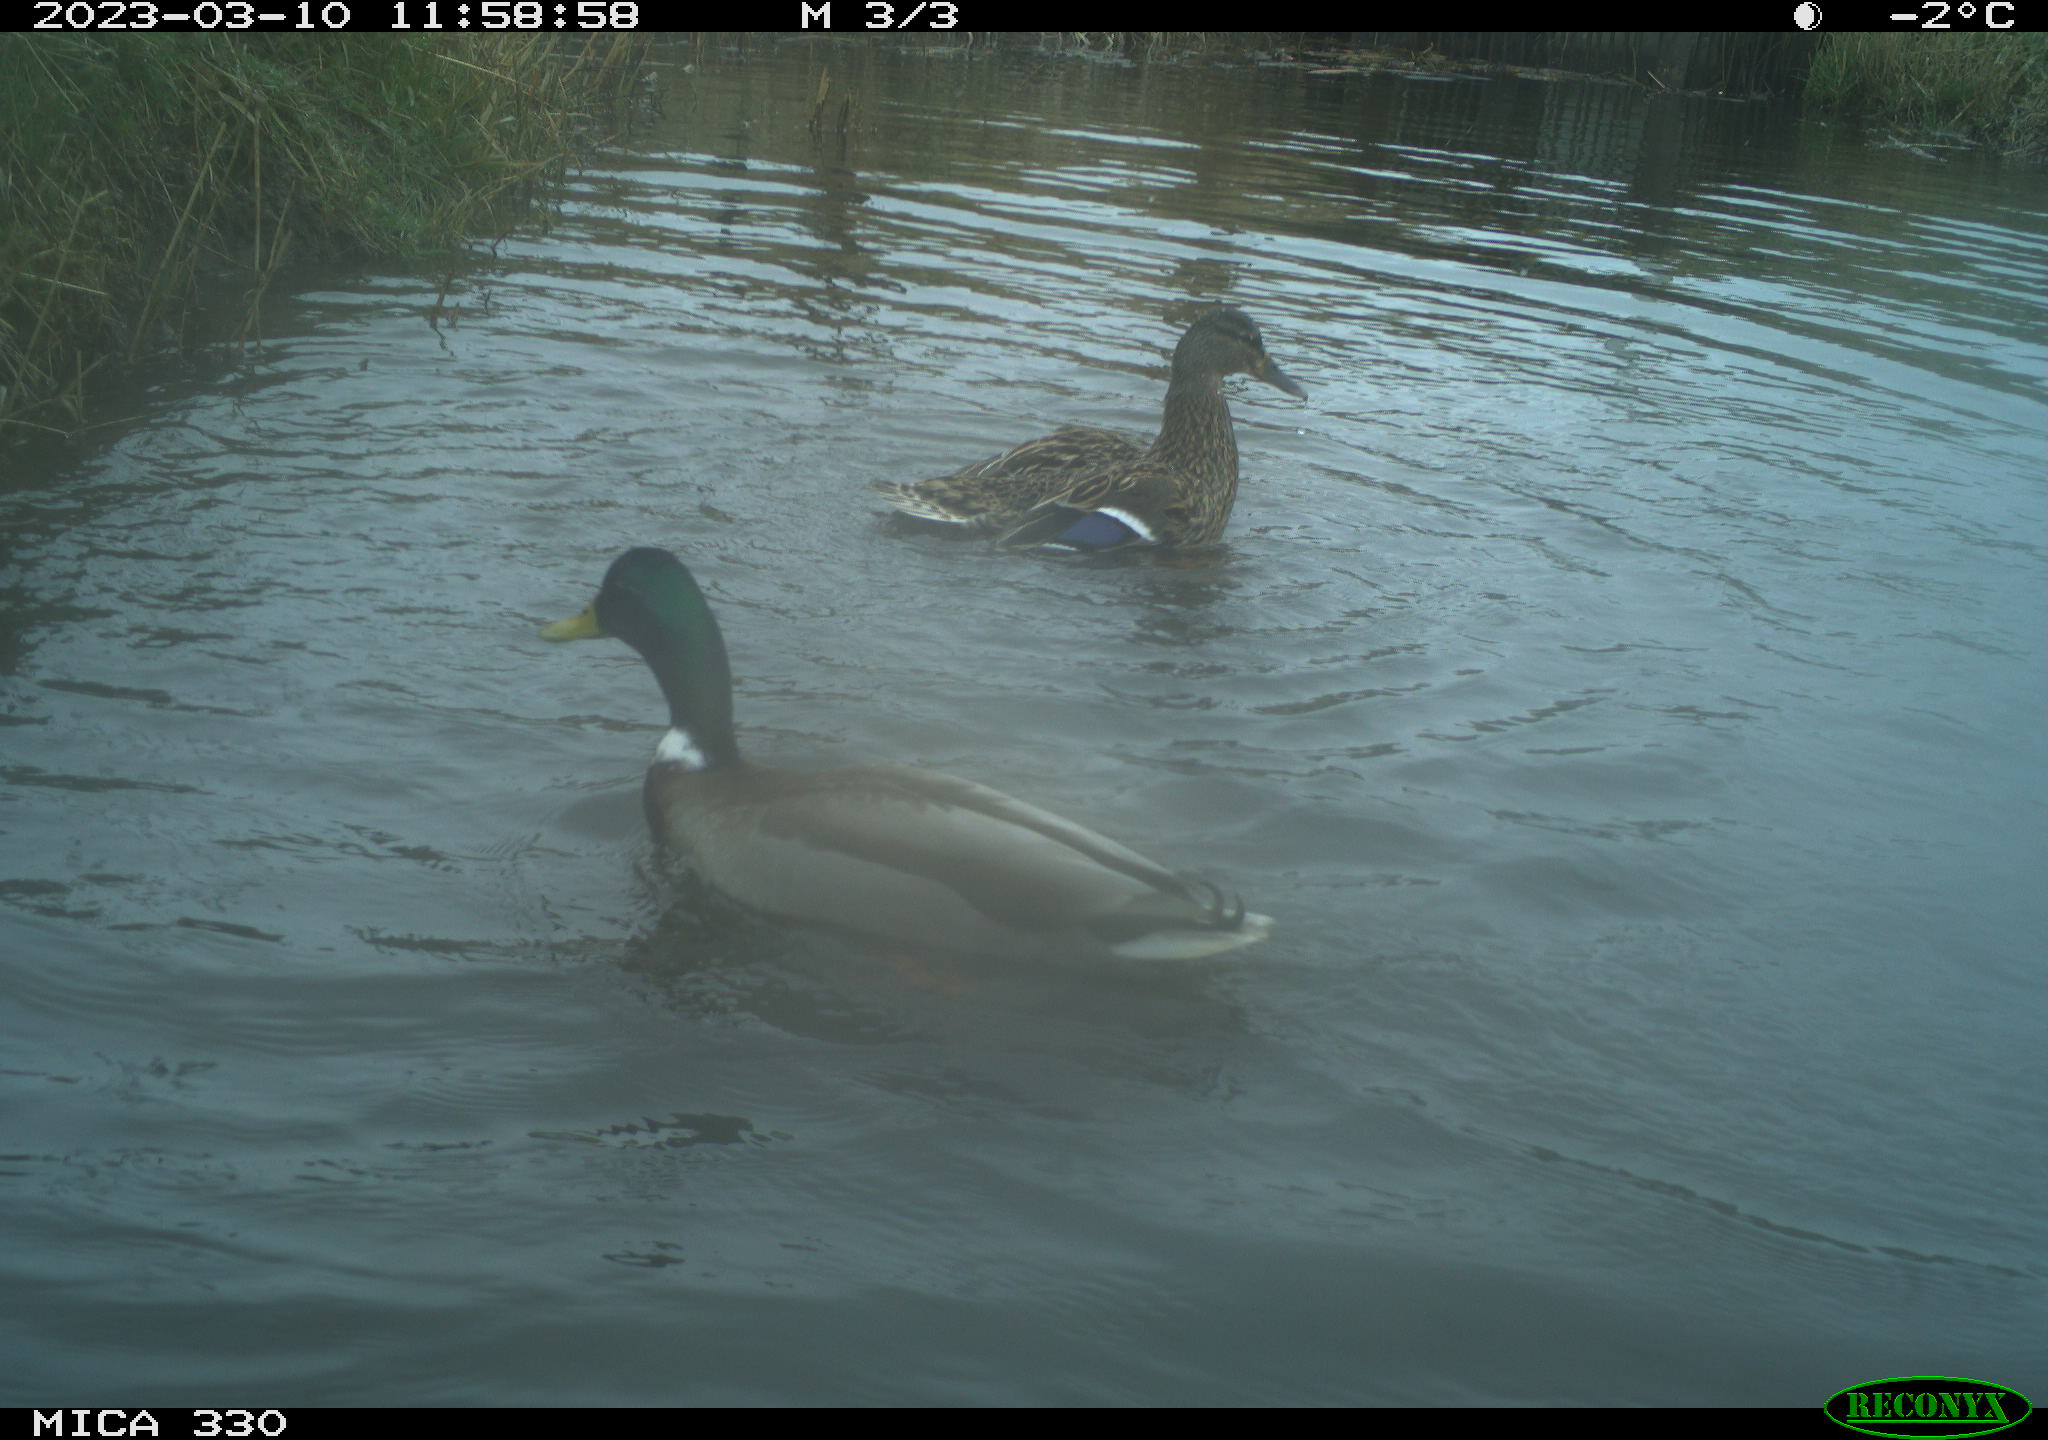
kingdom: Animalia
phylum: Chordata
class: Aves
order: Anseriformes
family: Anatidae
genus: Anas
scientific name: Anas
